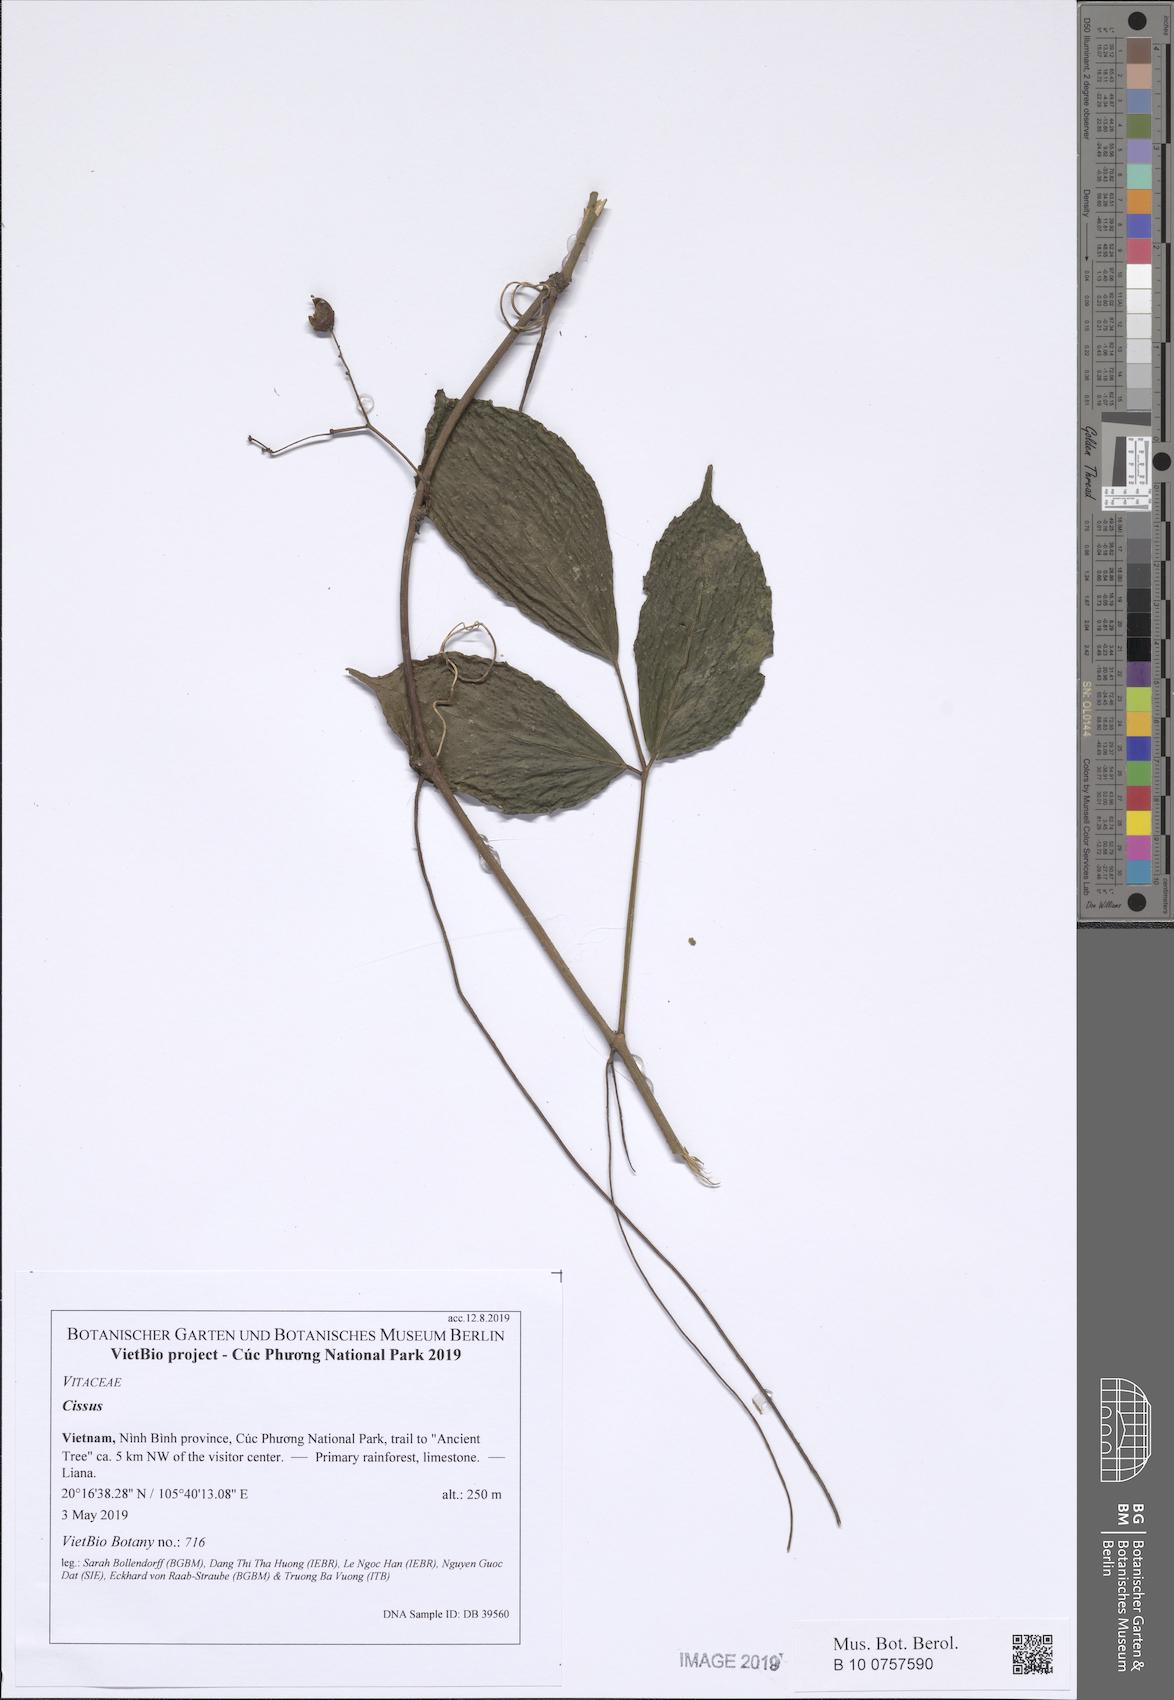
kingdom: Plantae
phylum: Tracheophyta
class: Magnoliopsida
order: Vitales
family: Vitaceae
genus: Cissus
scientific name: Cissus
